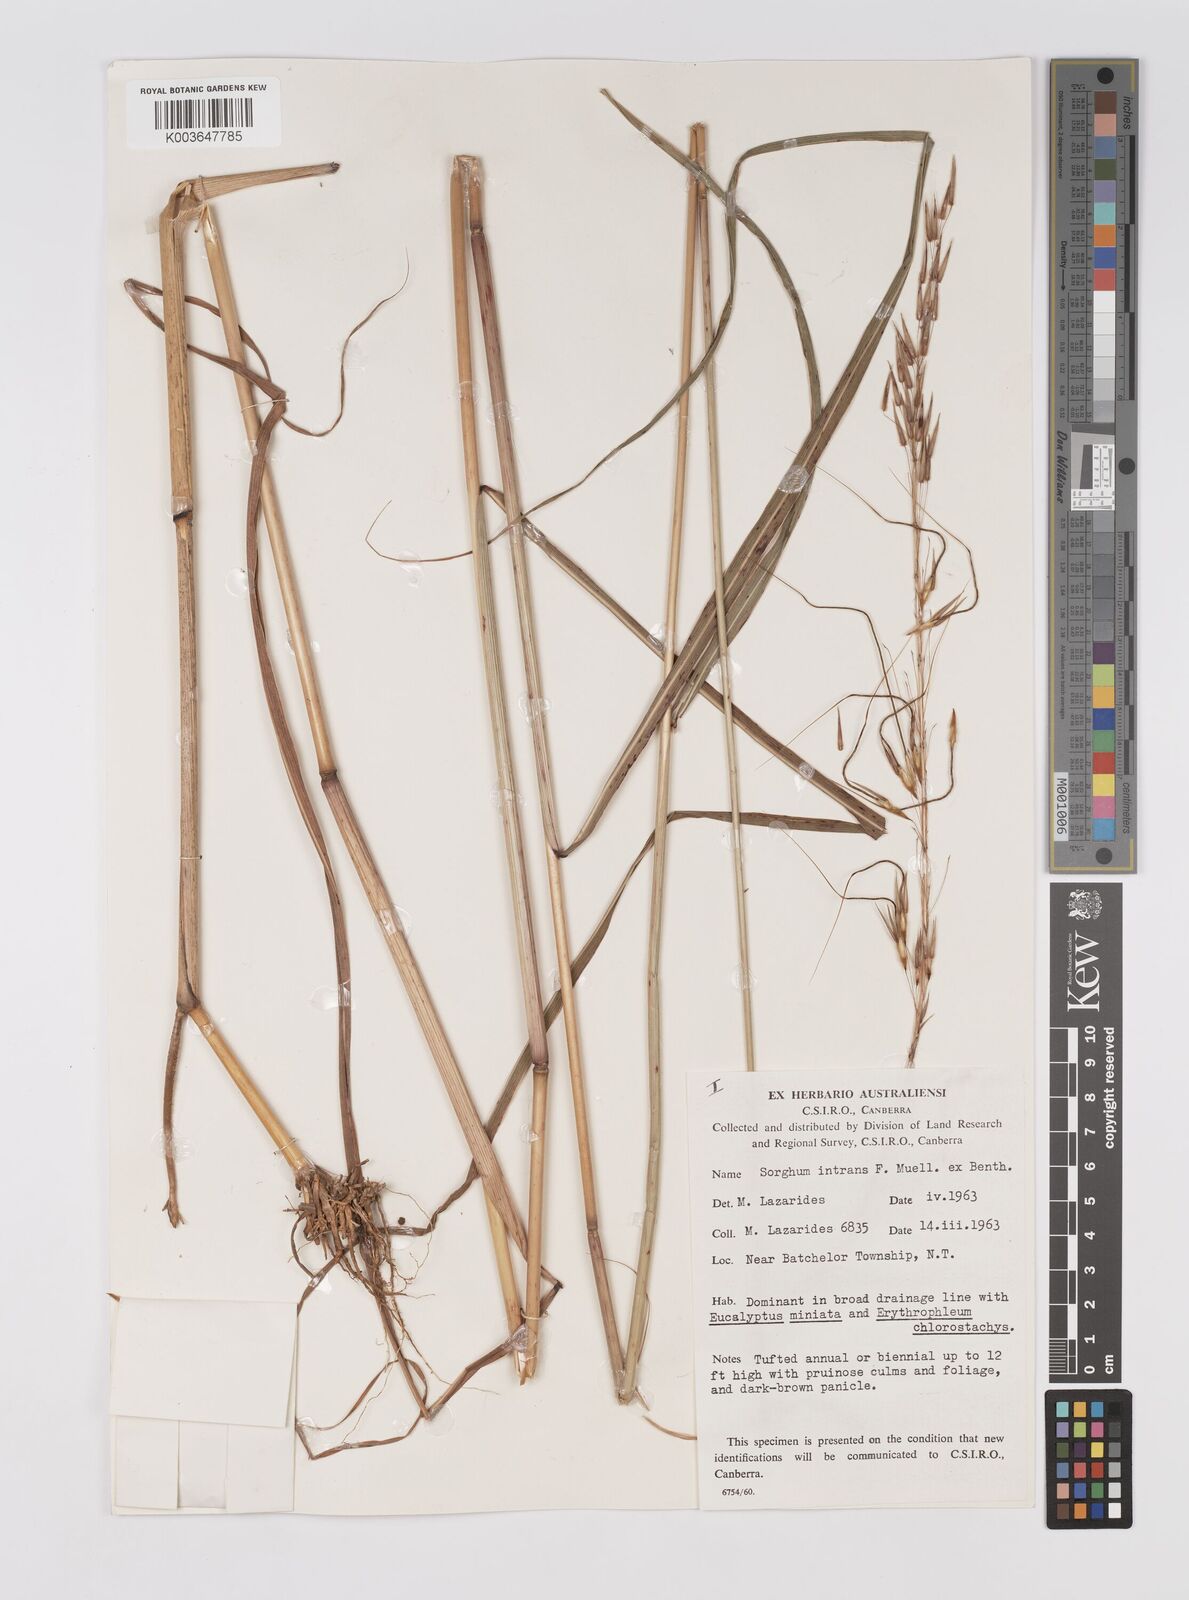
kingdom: Plantae
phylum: Tracheophyta
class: Liliopsida
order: Poales
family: Poaceae
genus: Sarga
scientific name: Sarga intrans
